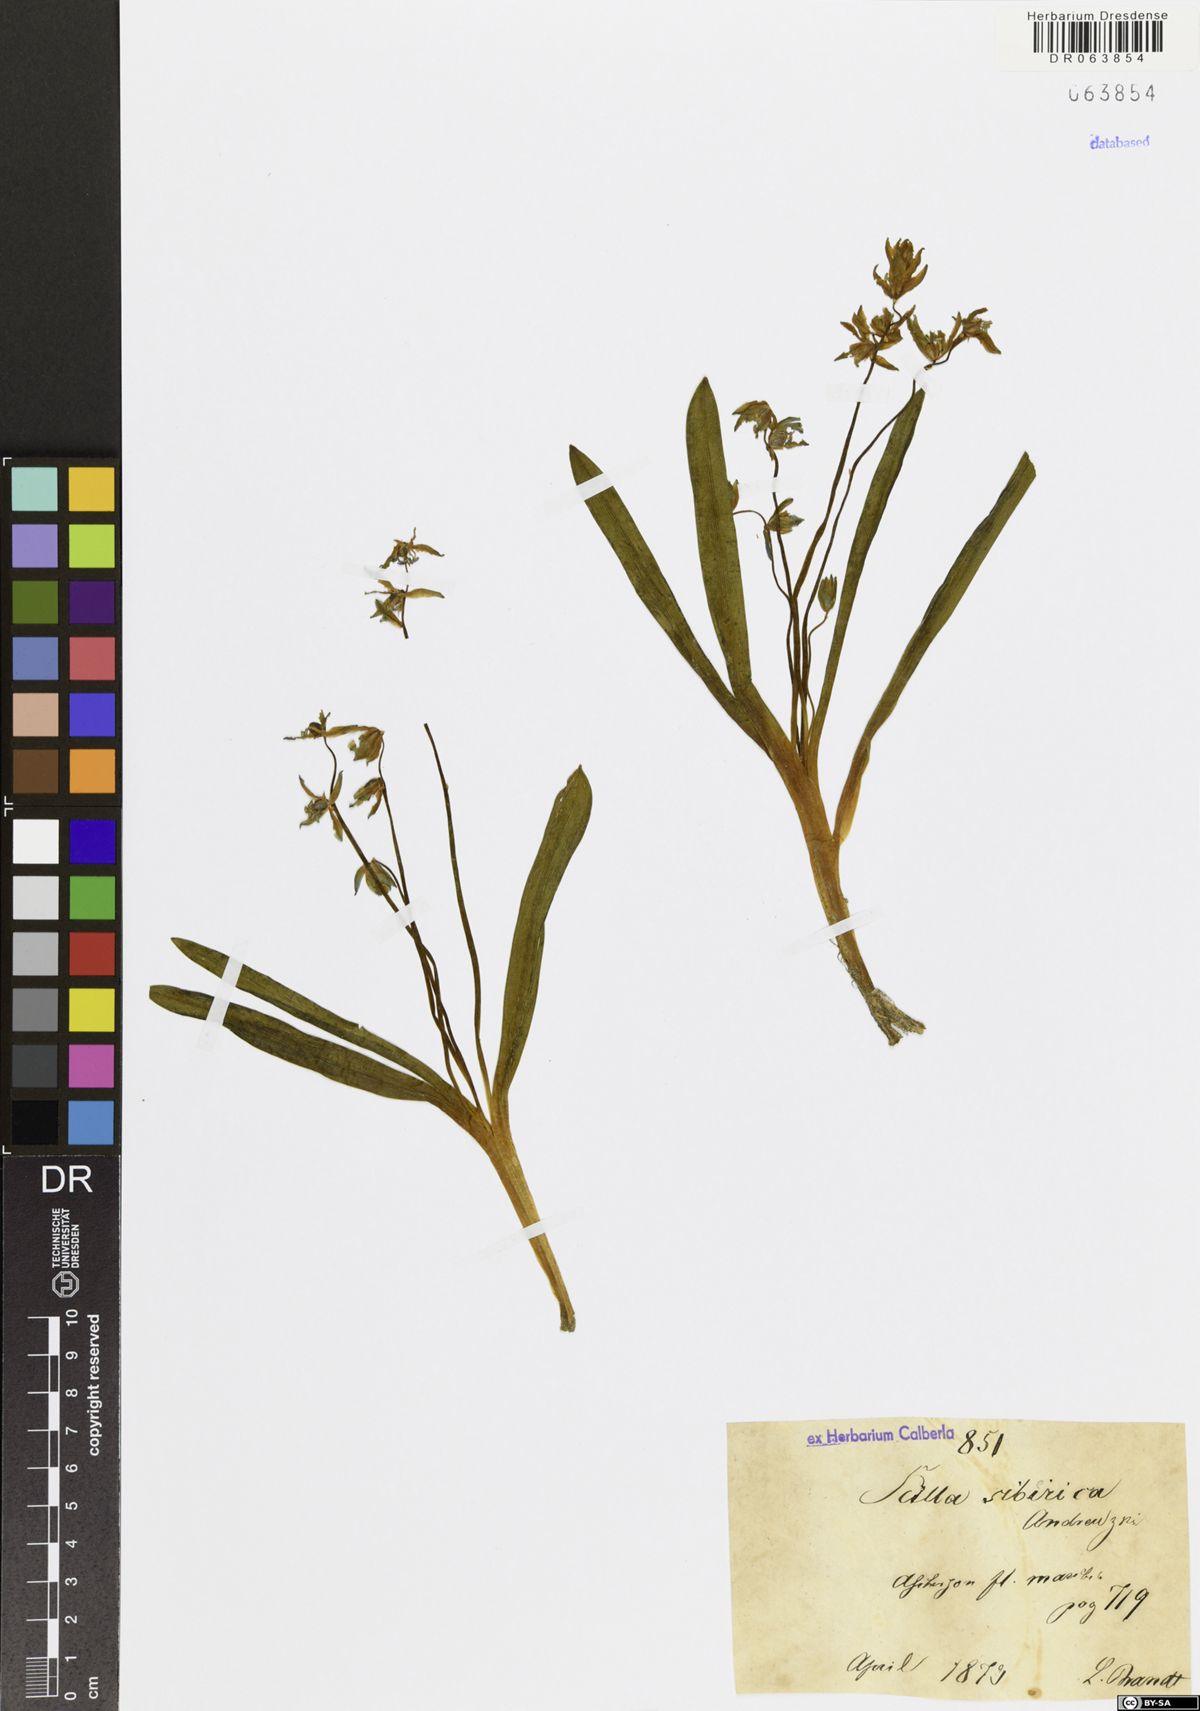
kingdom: Plantae
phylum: Tracheophyta
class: Liliopsida
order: Asparagales
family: Asparagaceae
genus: Scilla
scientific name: Scilla siberica
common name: Siberian squill
